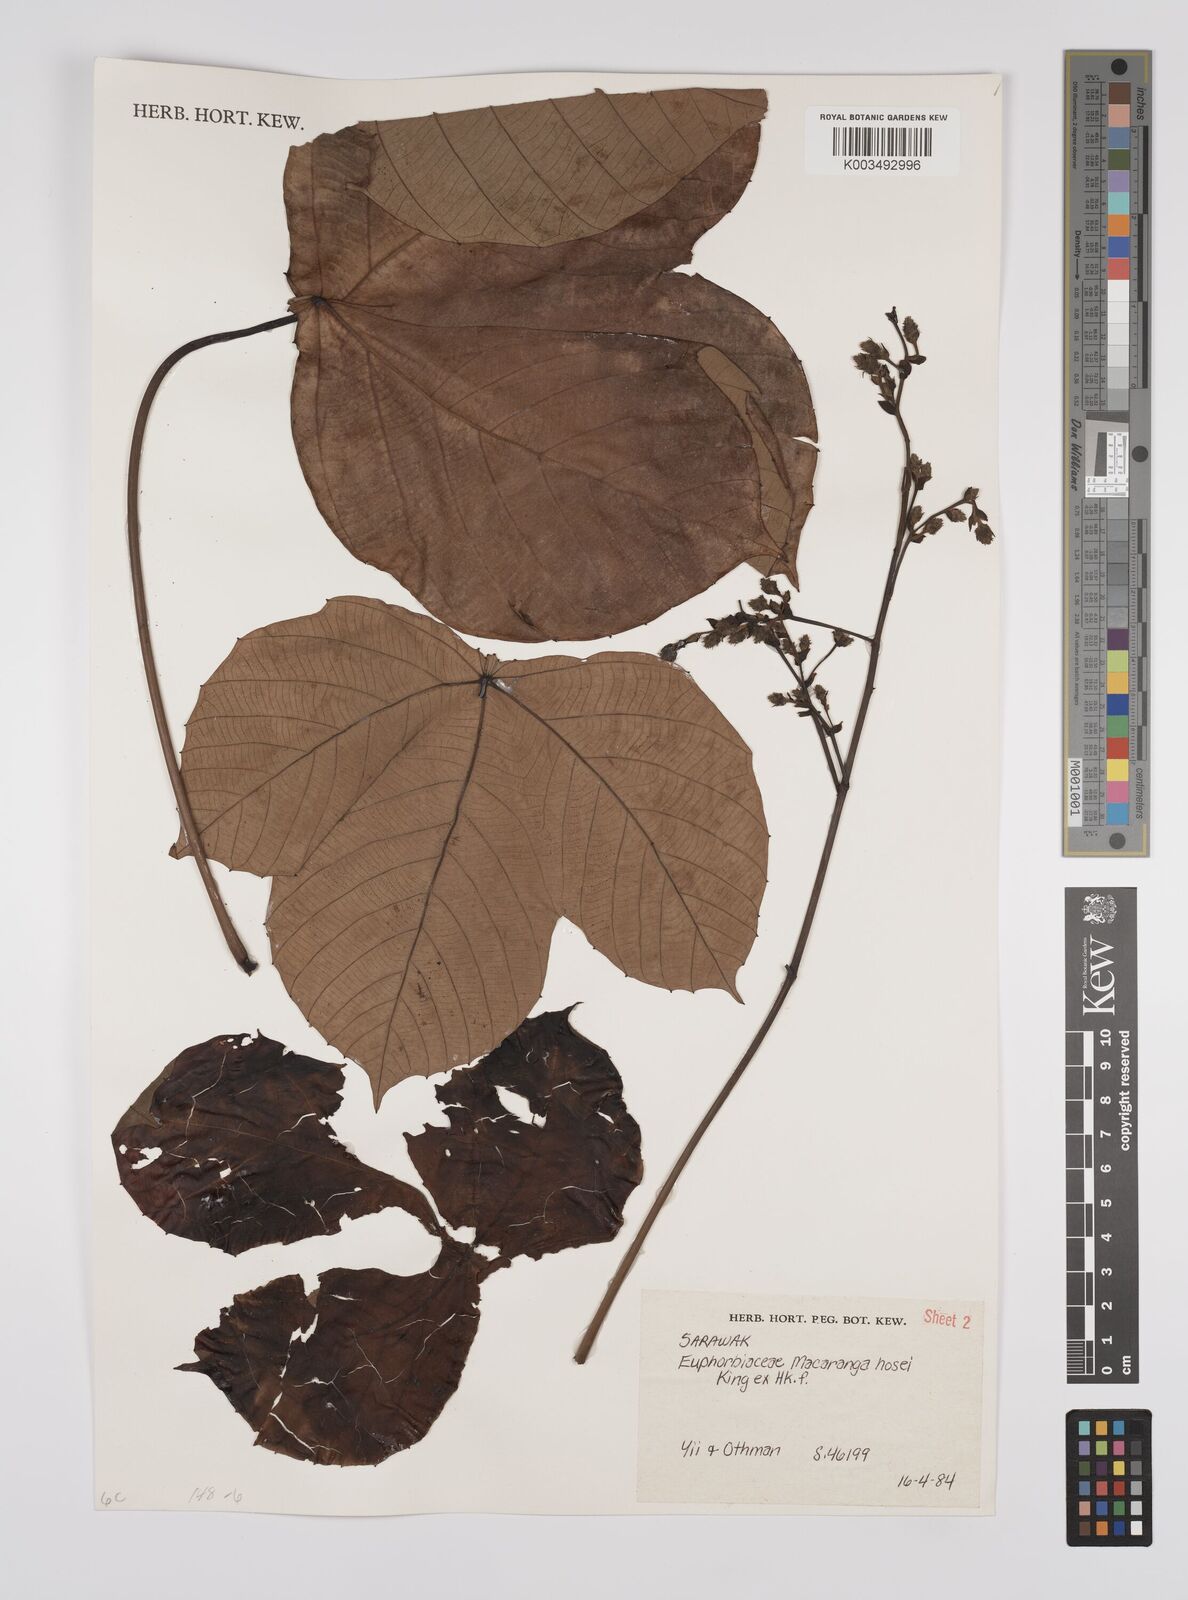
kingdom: Plantae
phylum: Tracheophyta
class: Magnoliopsida
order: Malpighiales
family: Euphorbiaceae
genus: Macaranga
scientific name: Macaranga hosei
